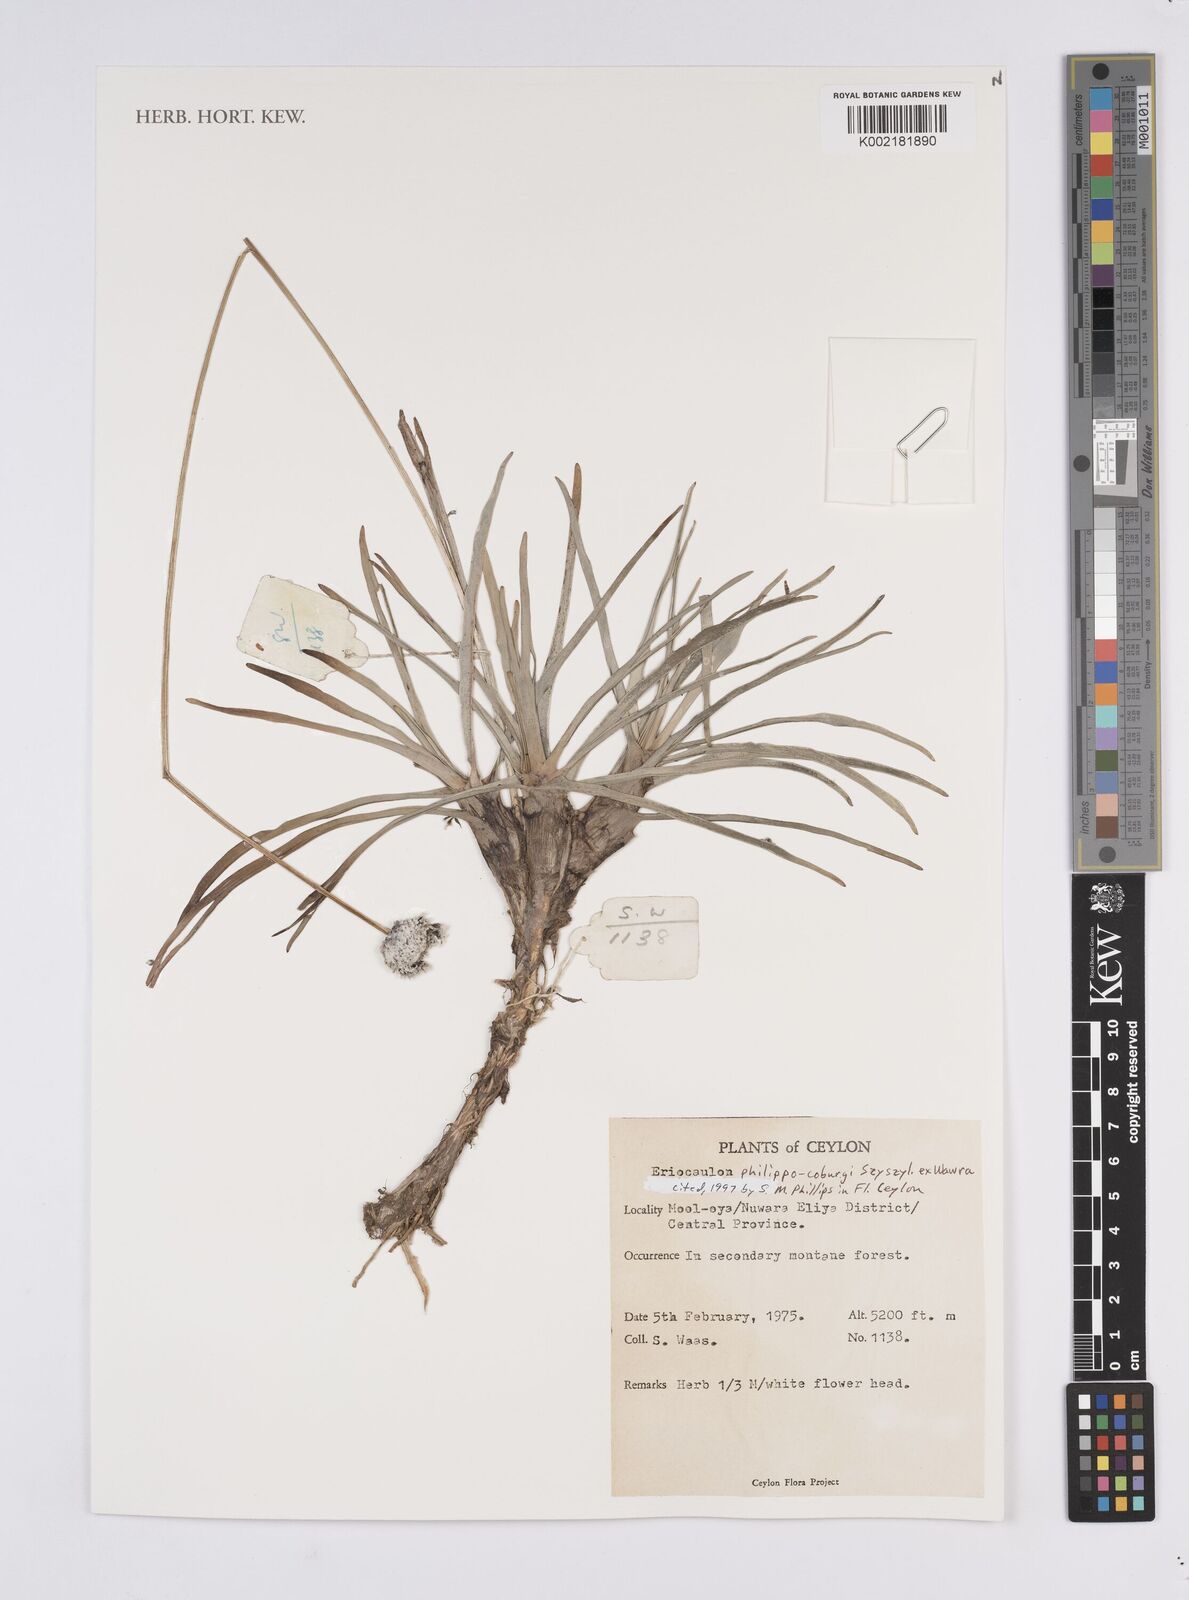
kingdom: Plantae
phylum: Tracheophyta
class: Liliopsida
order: Poales
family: Eriocaulaceae
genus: Eriocaulon
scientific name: Eriocaulon philippo-coburgii
